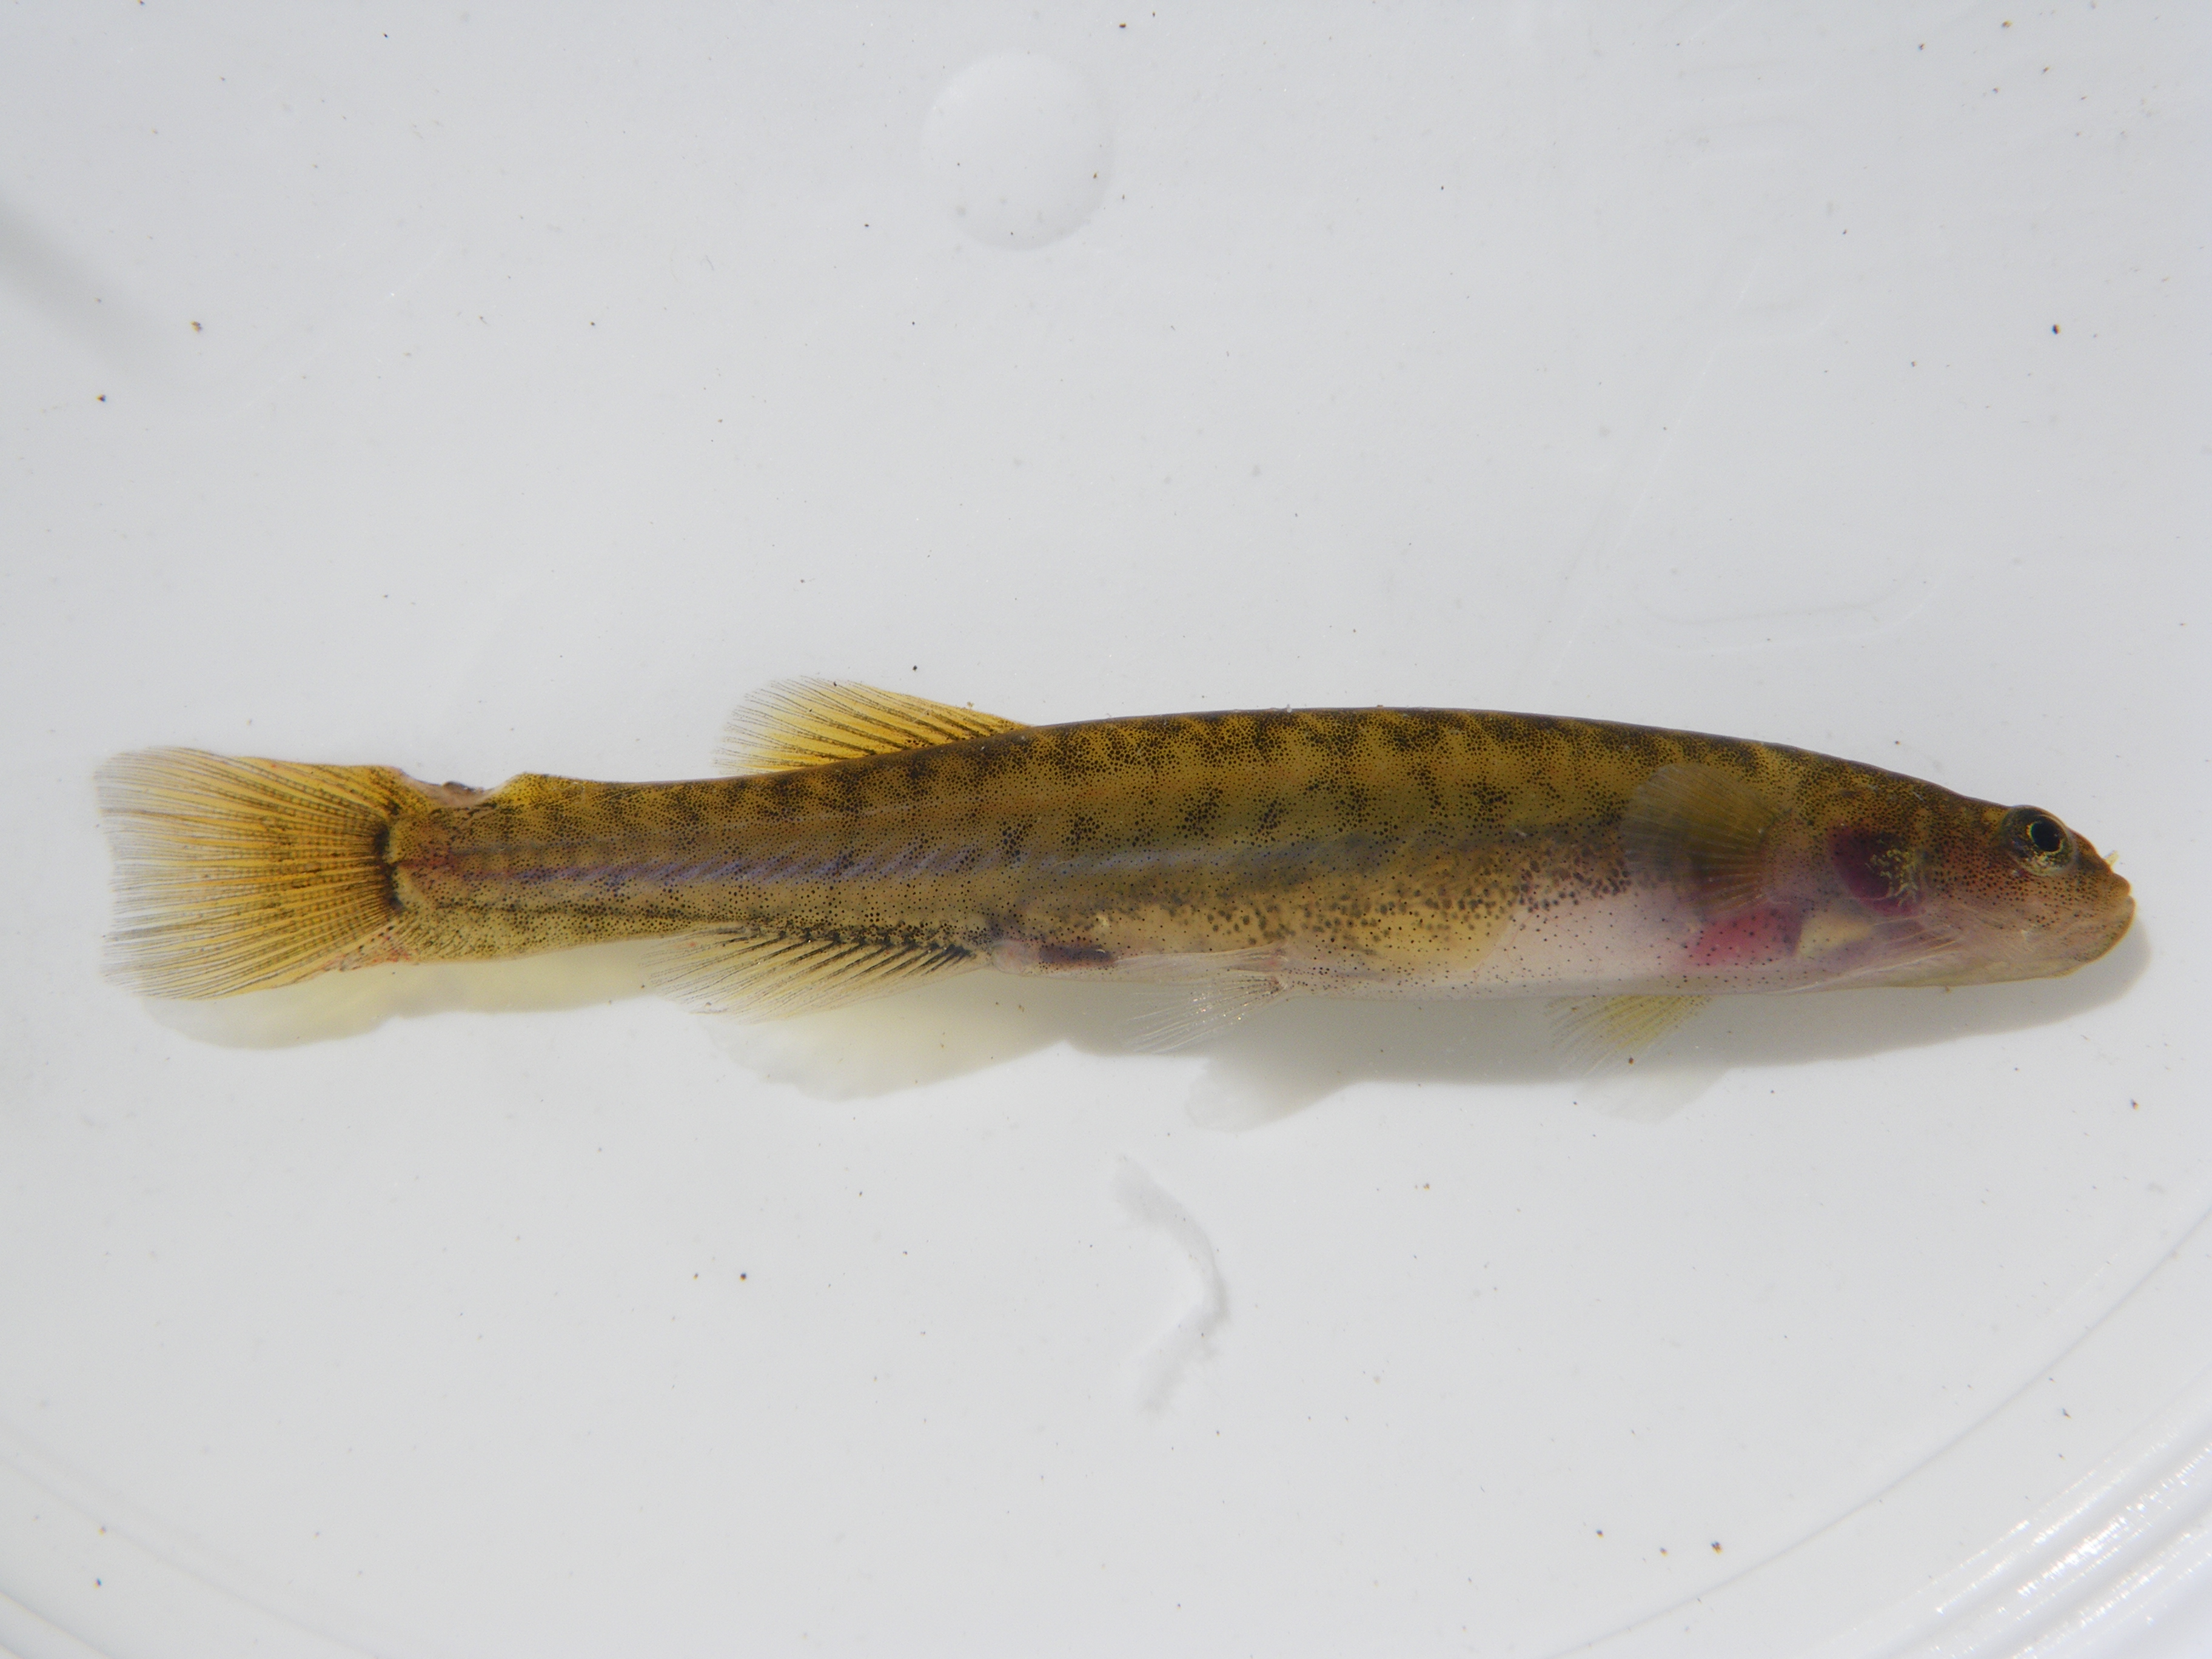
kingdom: Animalia
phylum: Chordata
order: Osmeriformes
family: Galaxiidae
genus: Galaxias
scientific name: Galaxias
